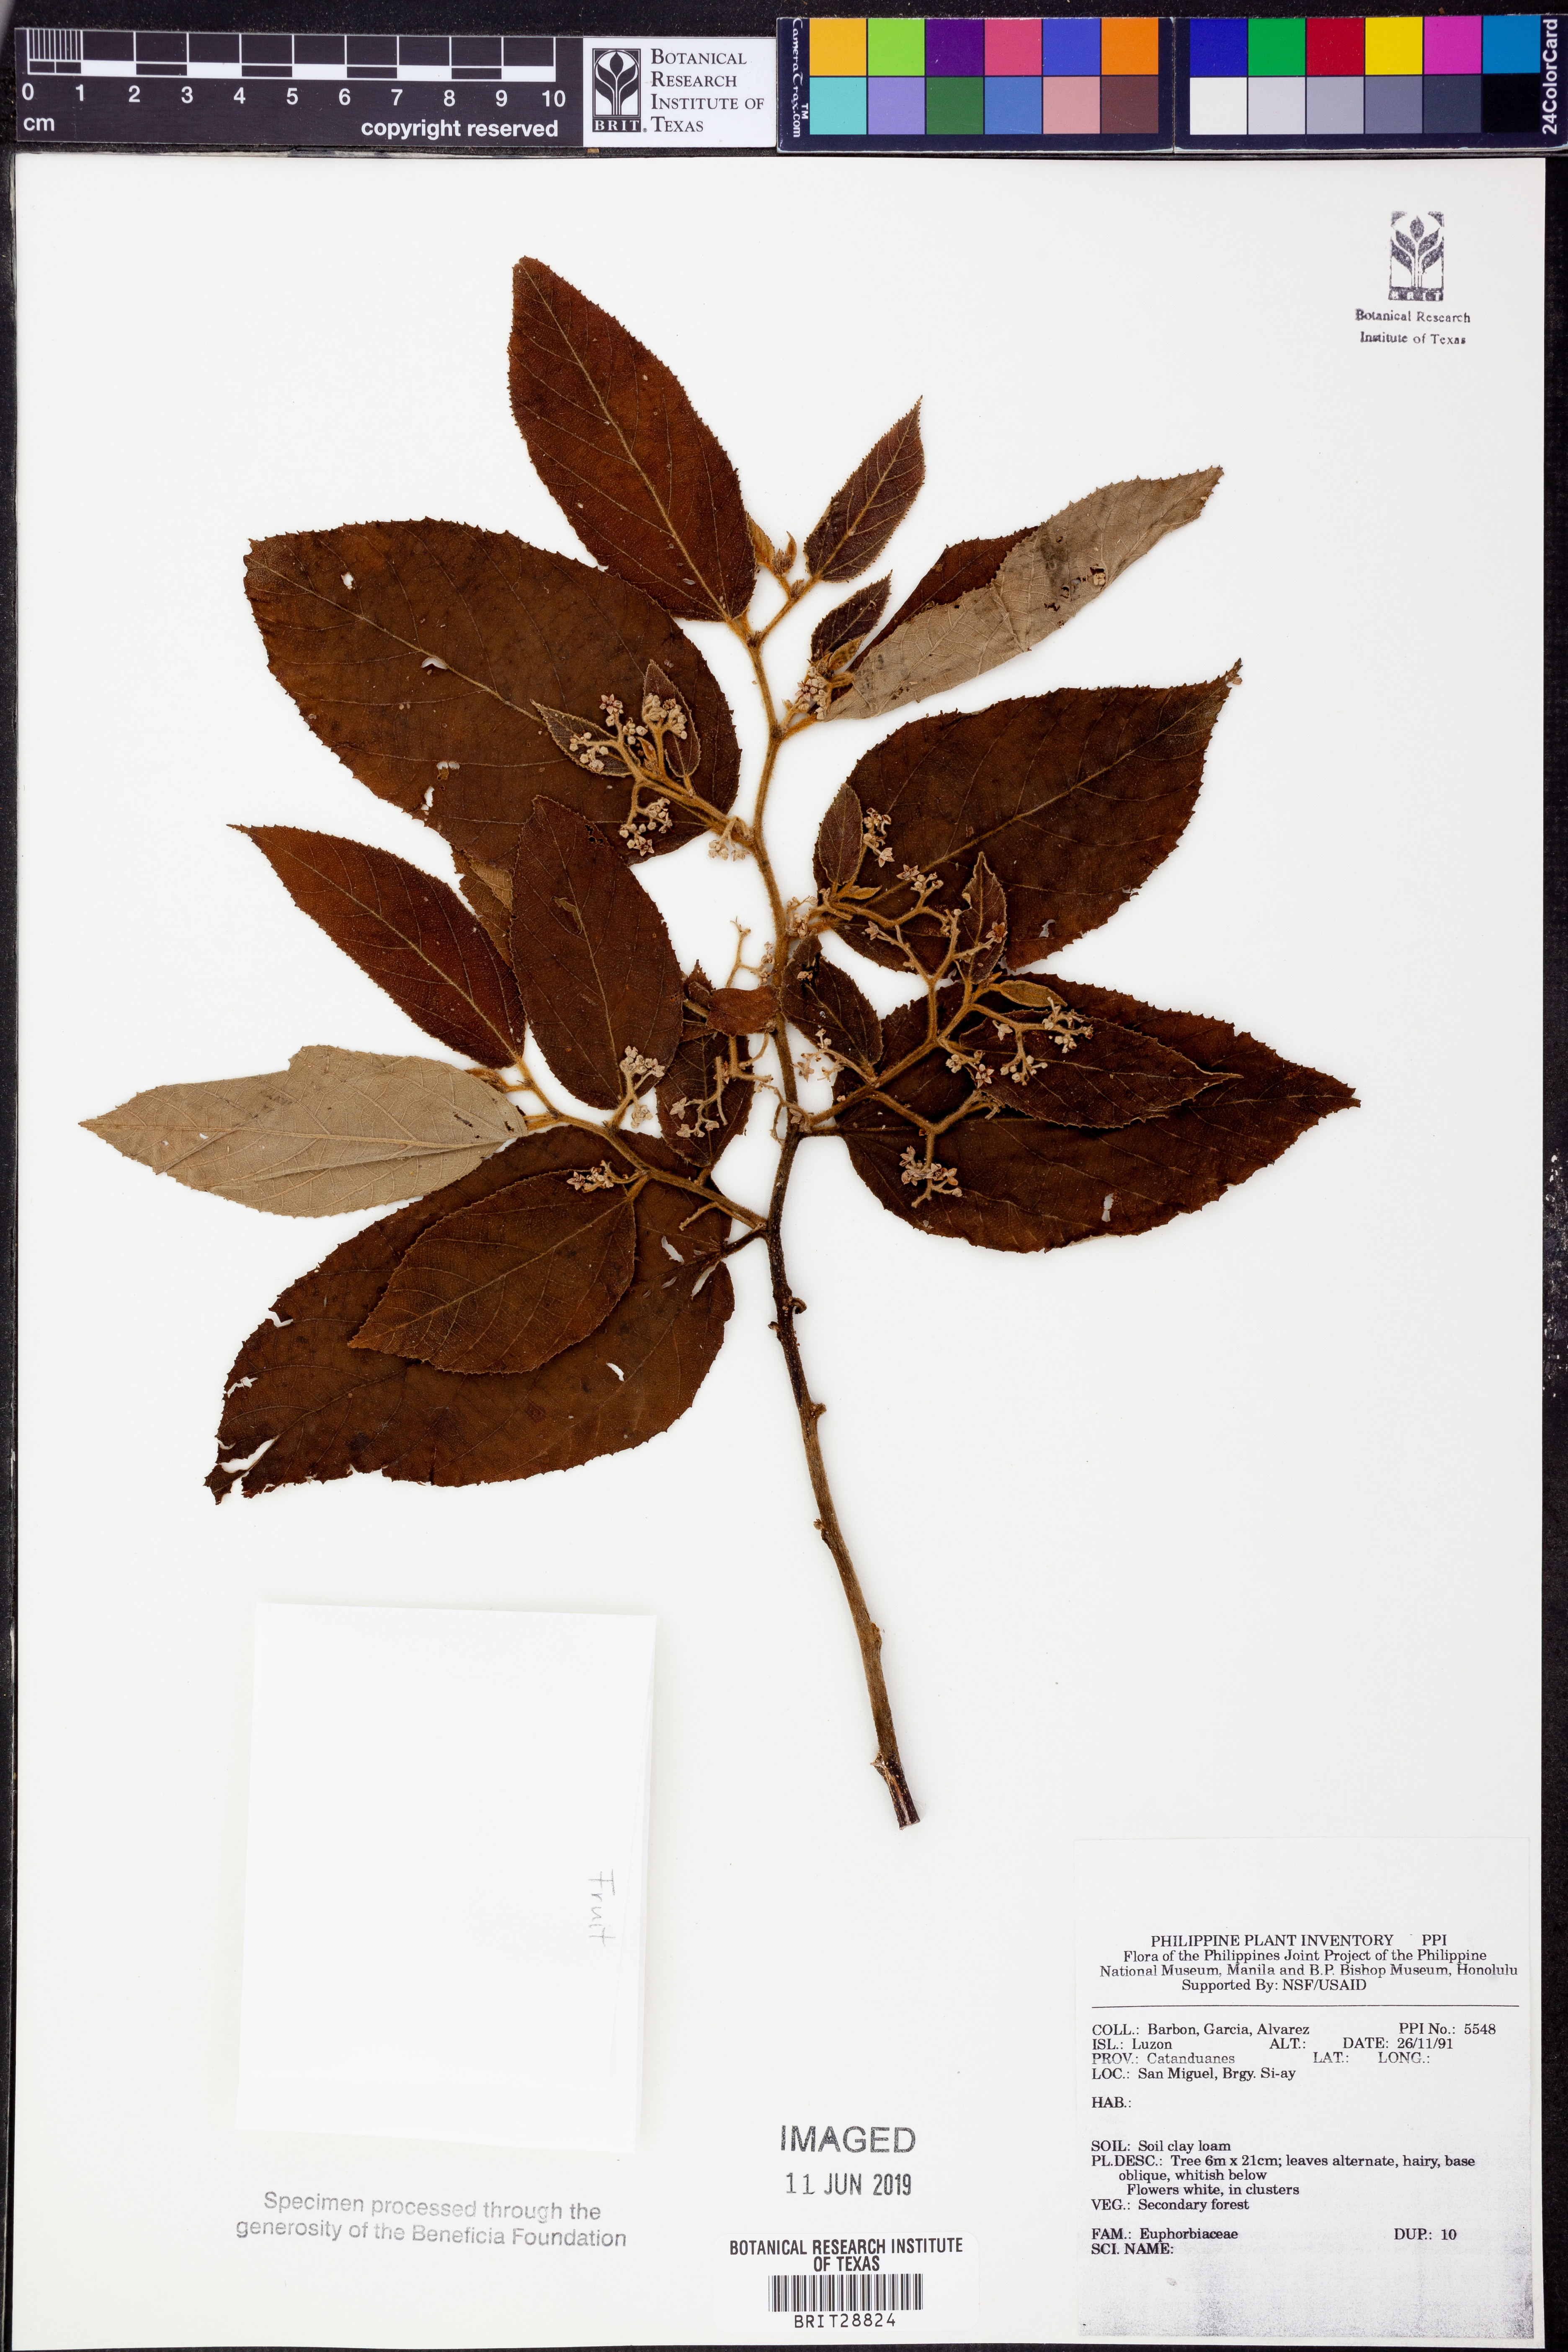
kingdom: Plantae
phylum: Tracheophyta
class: Magnoliopsida
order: Malpighiales
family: Euphorbiaceae
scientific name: Euphorbiaceae
